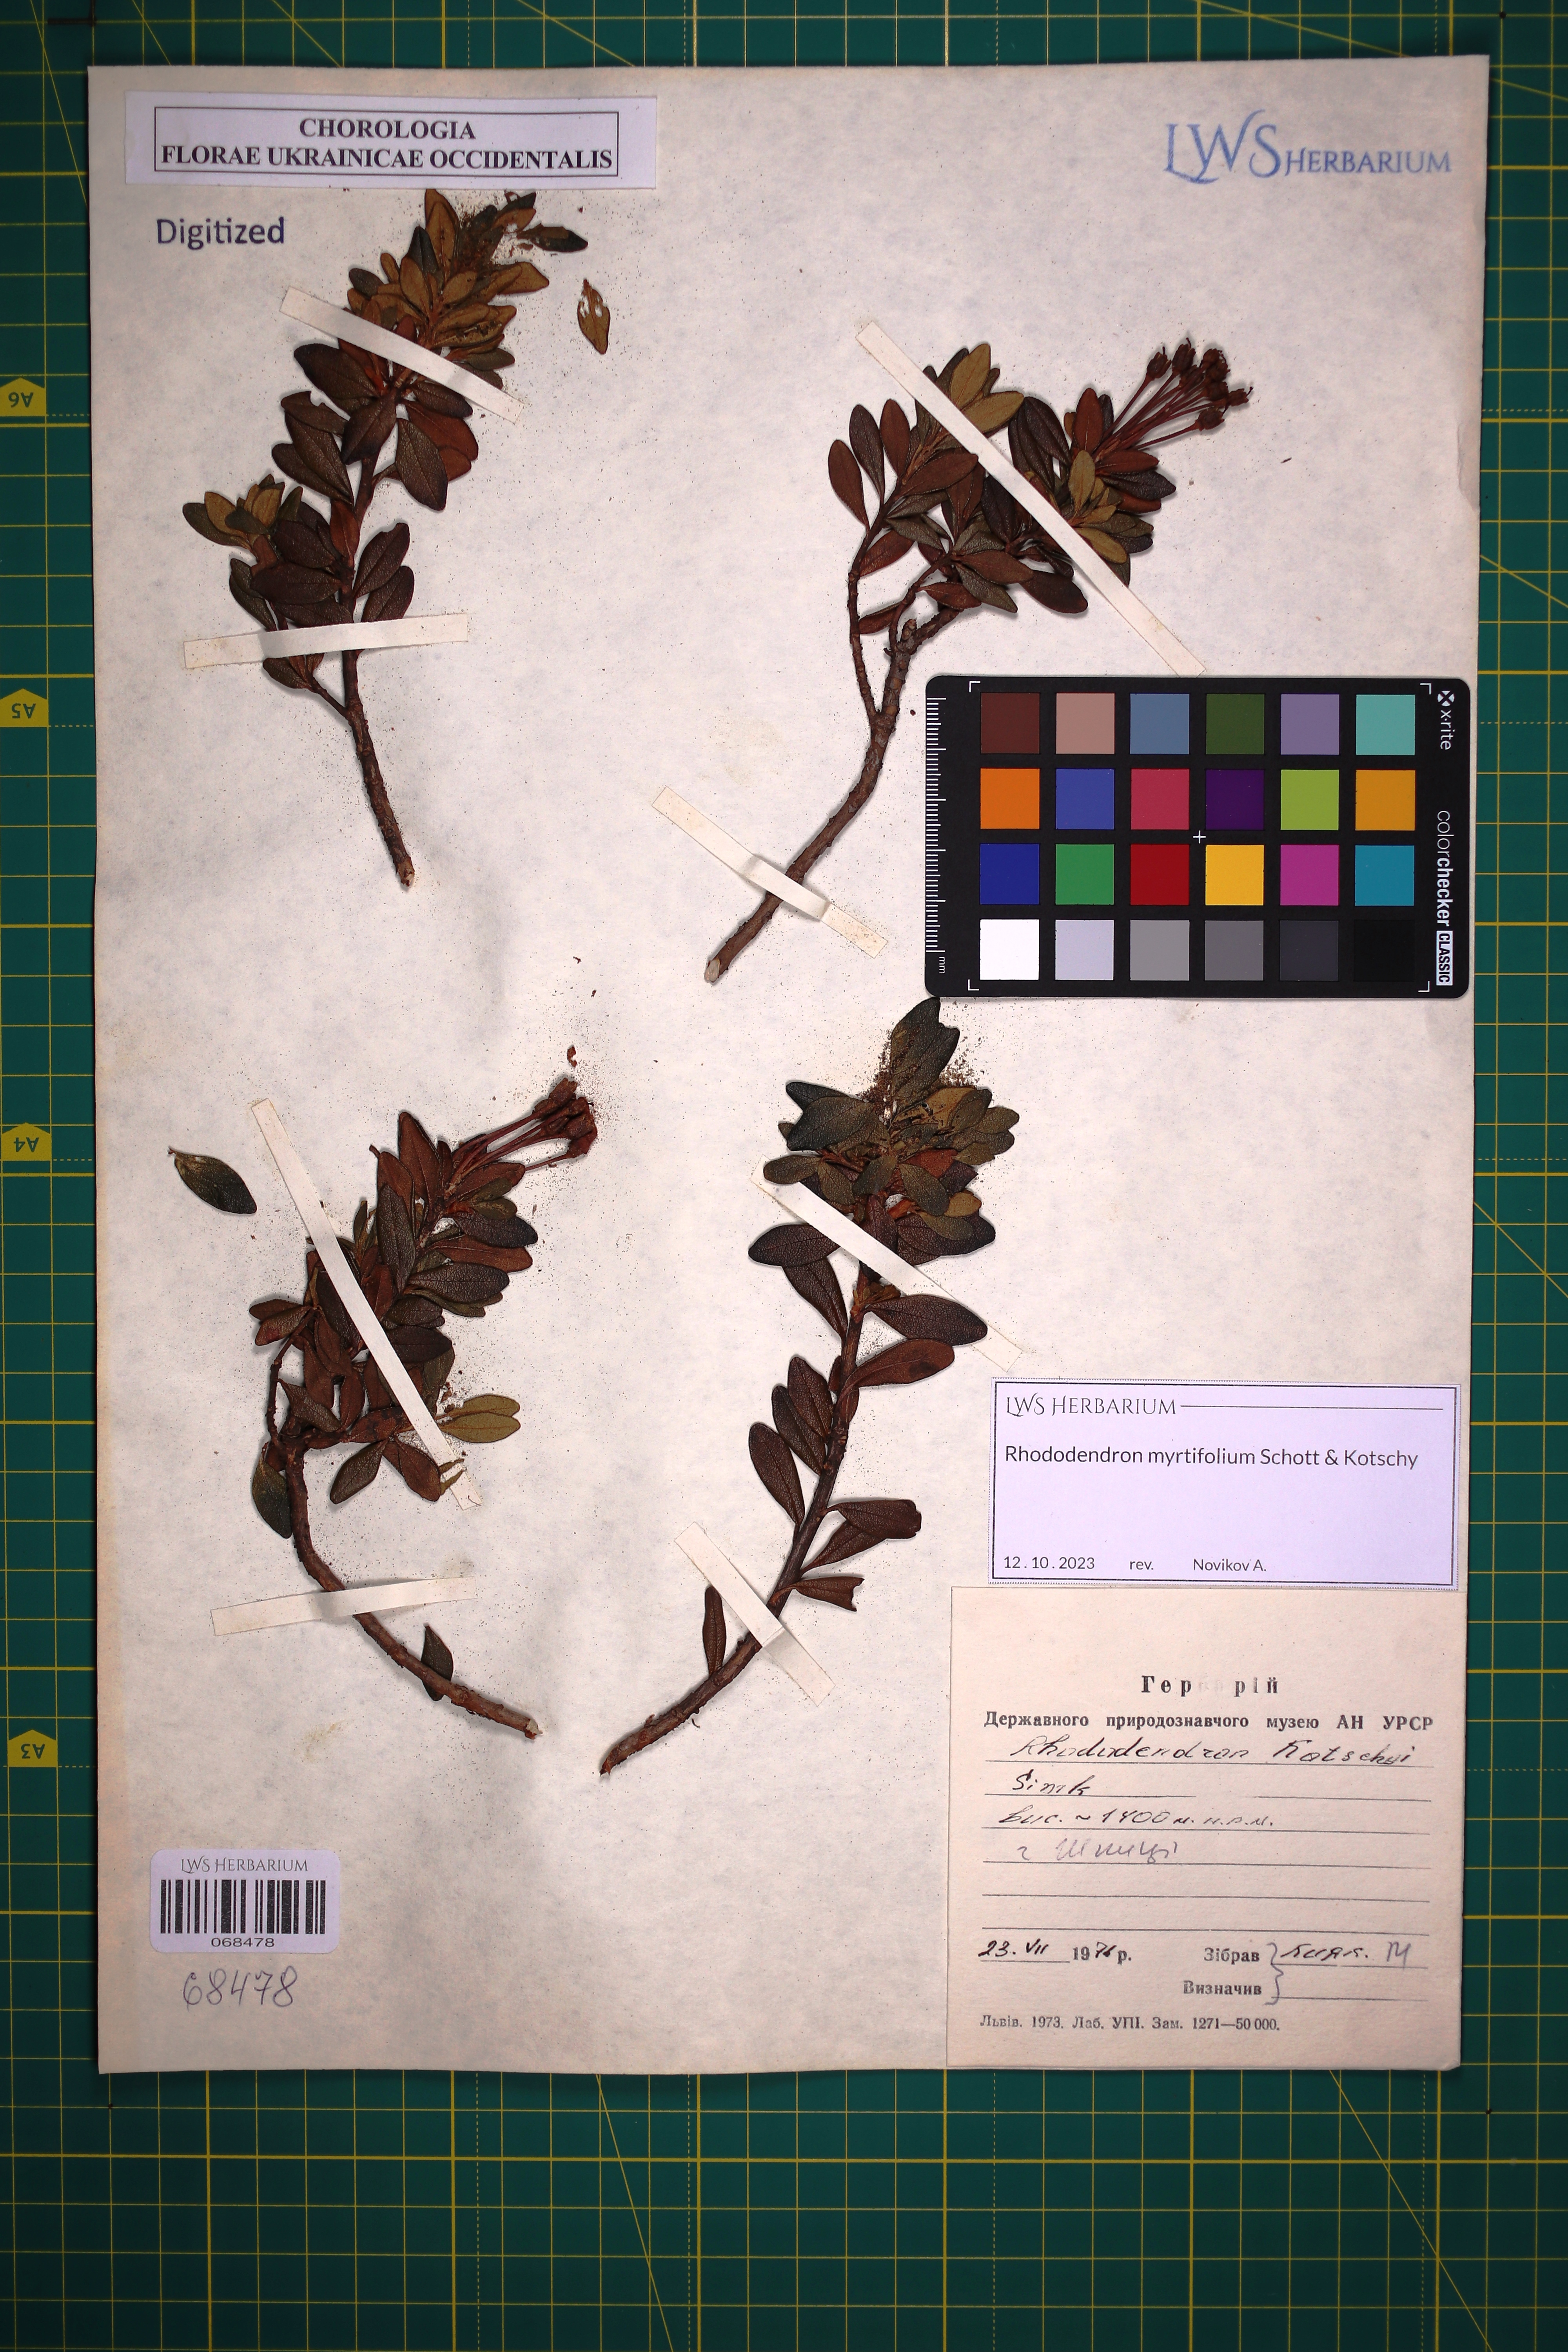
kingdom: Plantae
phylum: Tracheophyta
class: Magnoliopsida
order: Ericales
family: Ericaceae
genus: Rhododendron
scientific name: Rhododendron kotschyi
